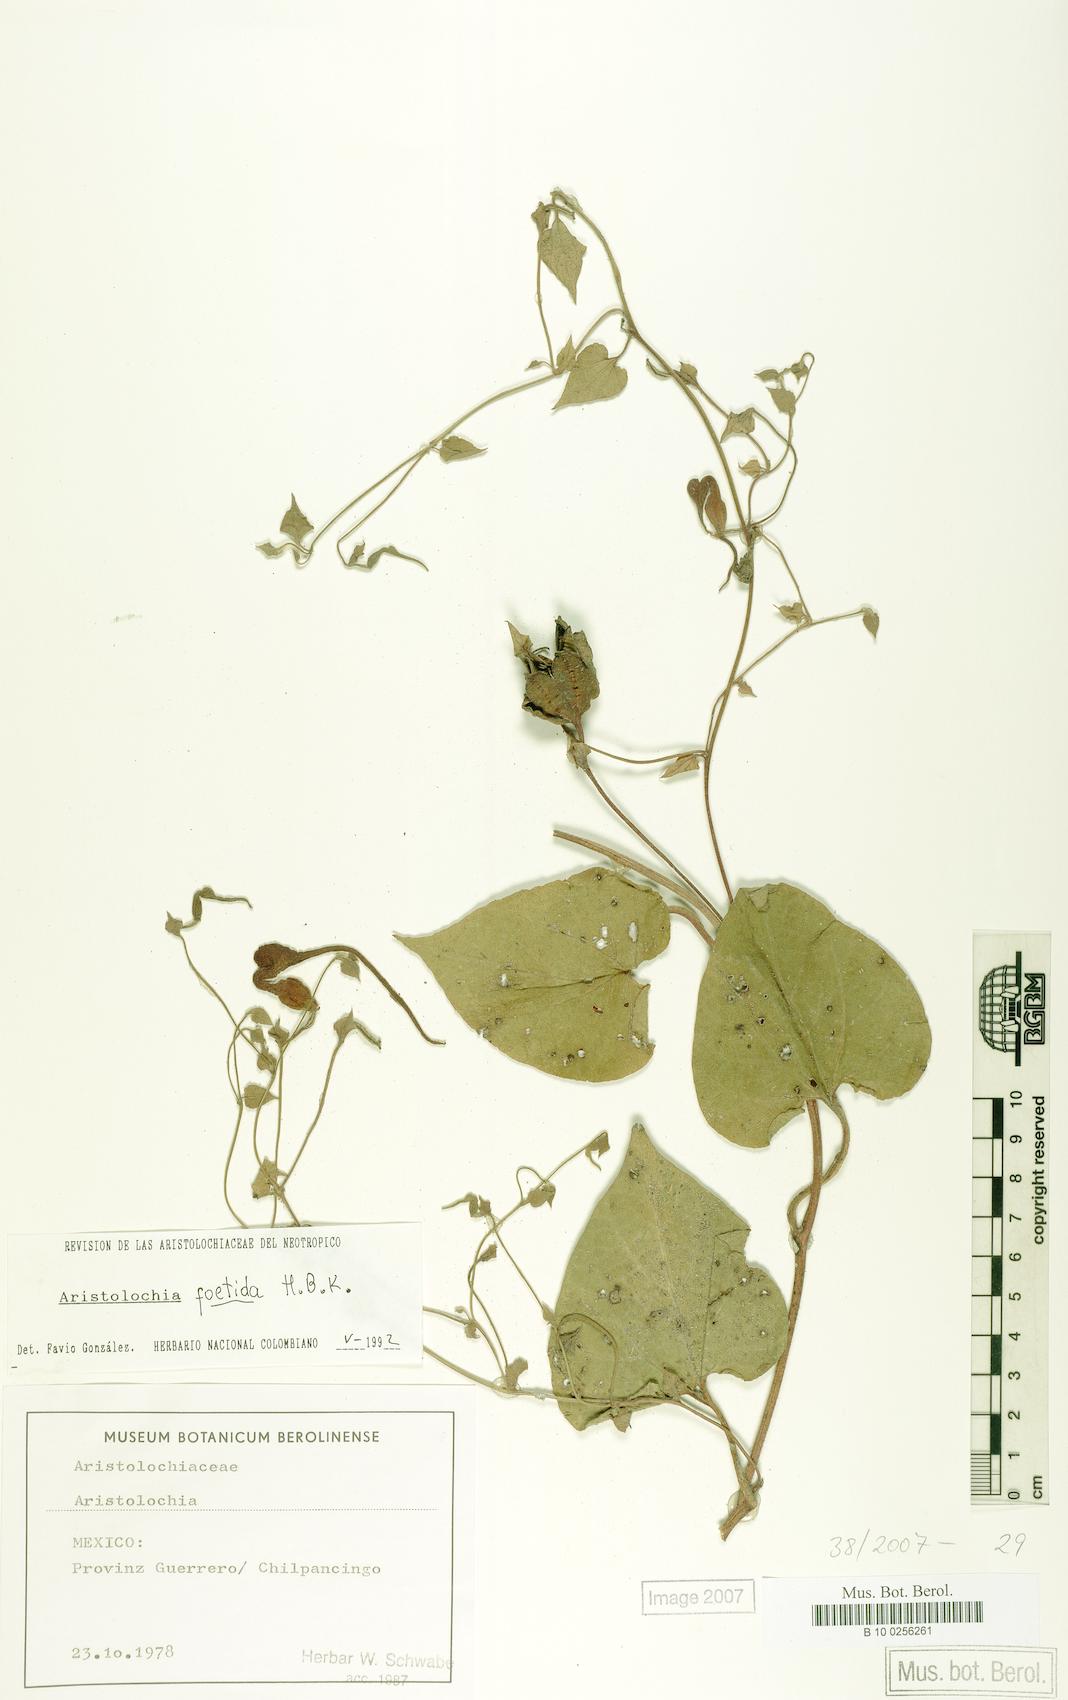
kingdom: Plantae
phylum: Tracheophyta
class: Magnoliopsida
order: Piperales
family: Aristolochiaceae
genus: Aristolochia
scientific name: Aristolochia foetida
